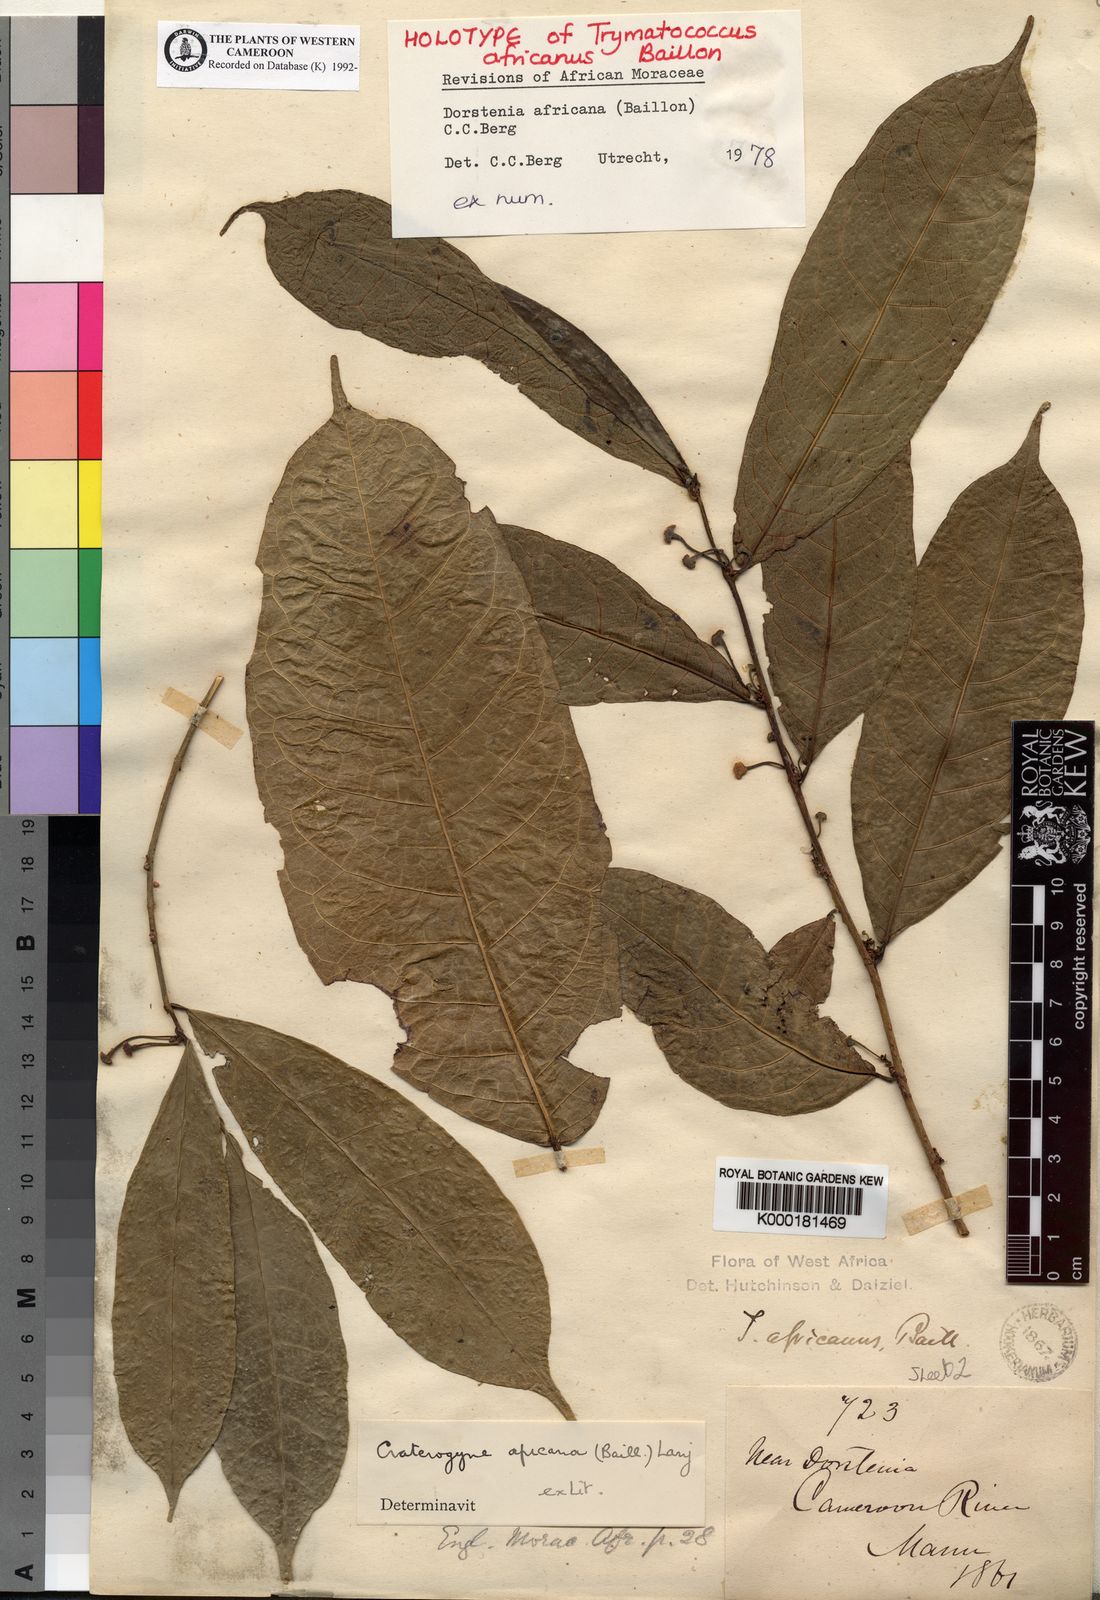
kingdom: Plantae
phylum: Tracheophyta
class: Magnoliopsida
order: Rosales
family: Moraceae
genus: Dorstenia
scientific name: Dorstenia africana
